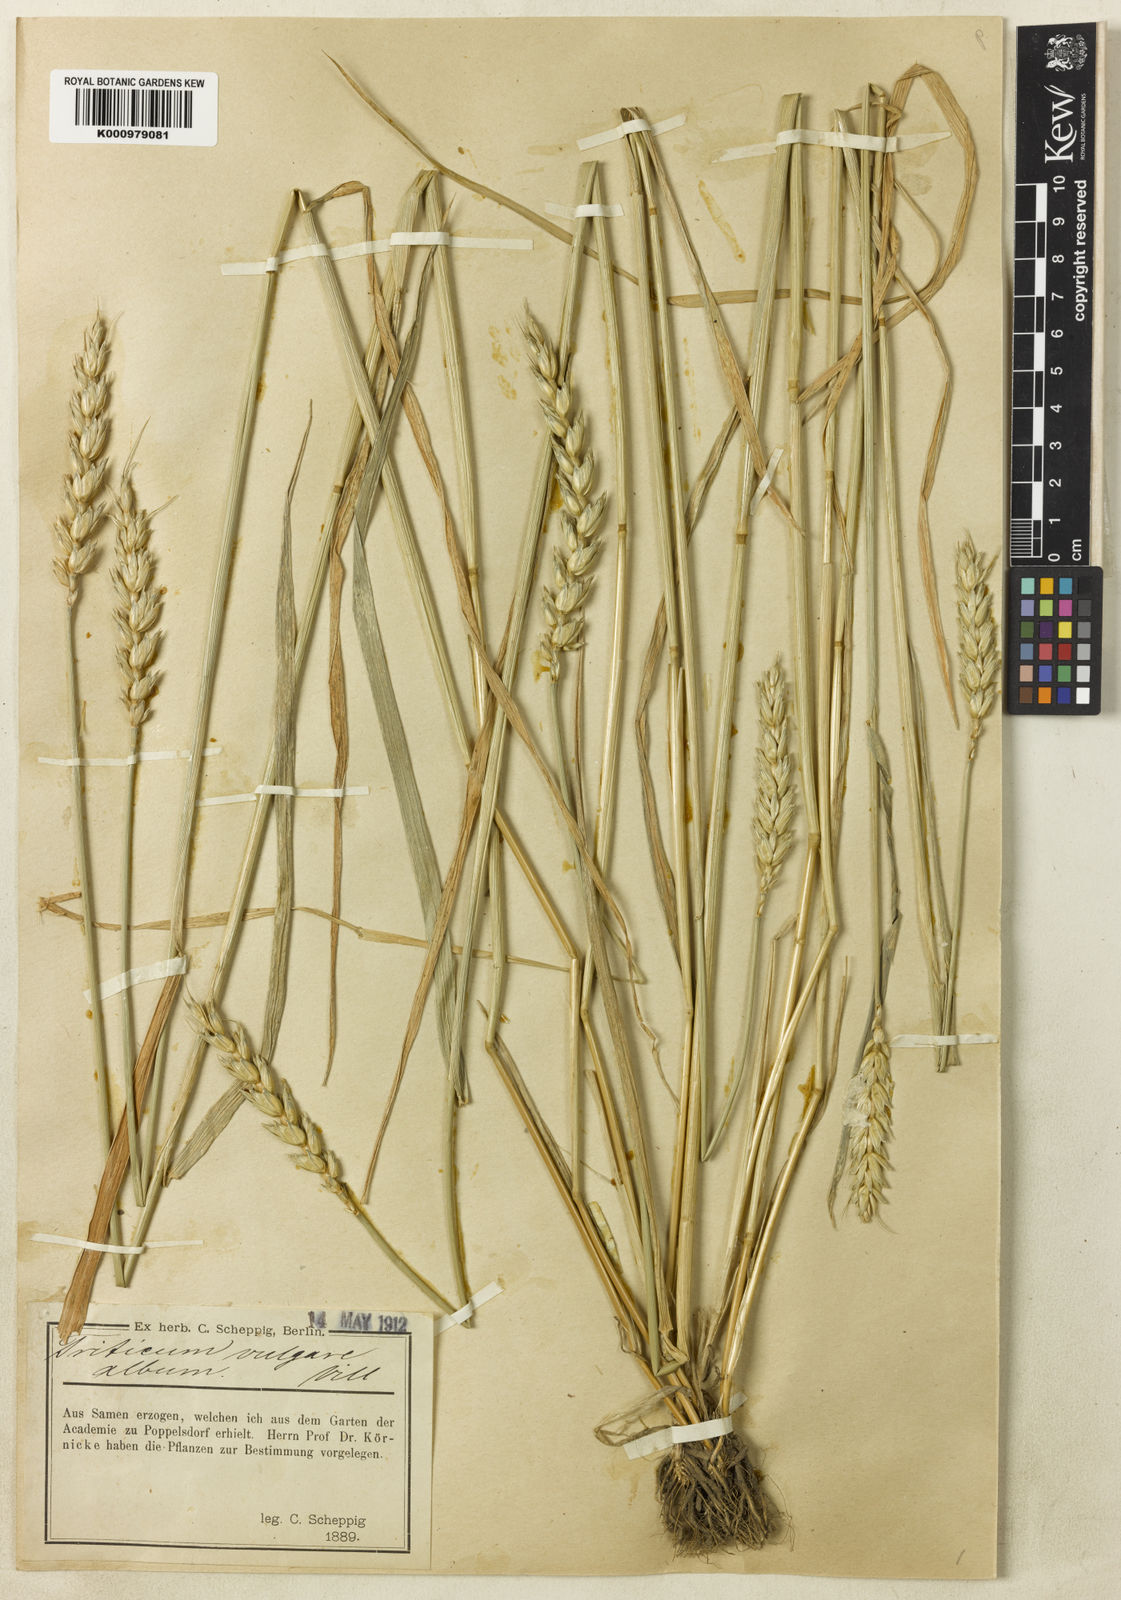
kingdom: Plantae
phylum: Tracheophyta
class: Liliopsida
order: Poales
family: Poaceae
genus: Triticum
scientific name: Triticum aestivum
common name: Common wheat
